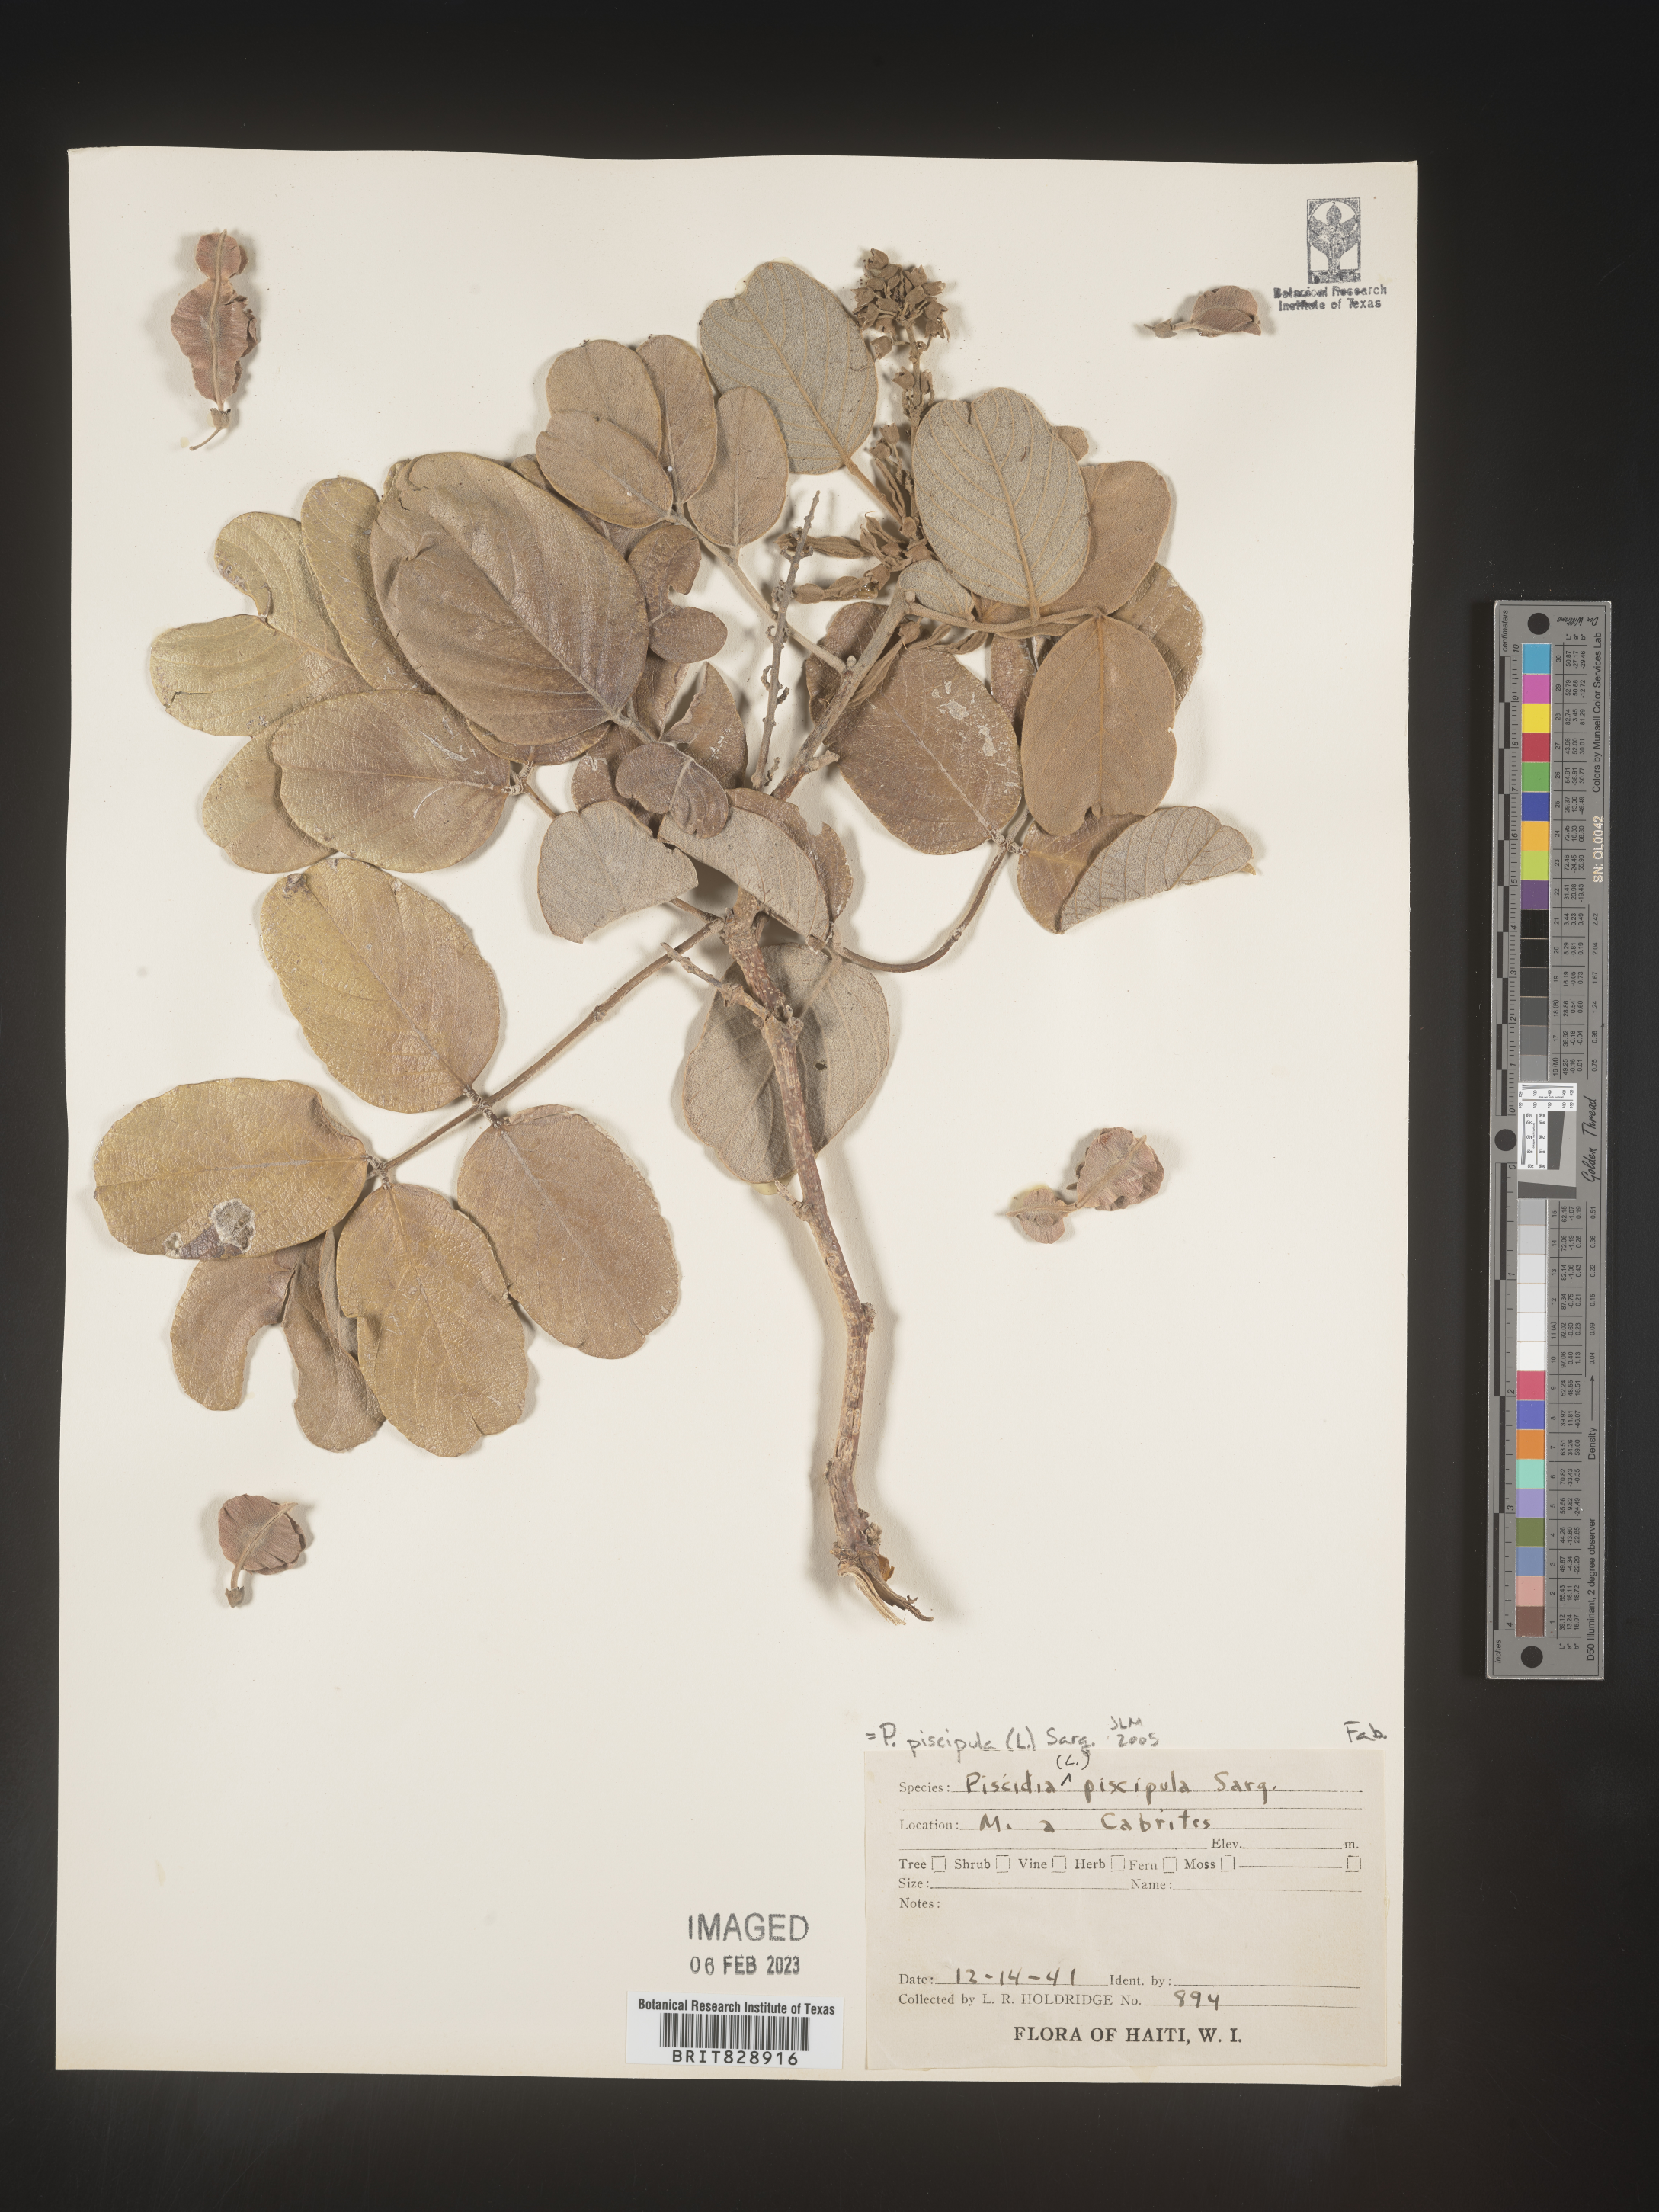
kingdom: Plantae
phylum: Tracheophyta
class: Magnoliopsida
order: Fabales
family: Fabaceae
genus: Piscidia
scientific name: Piscidia
